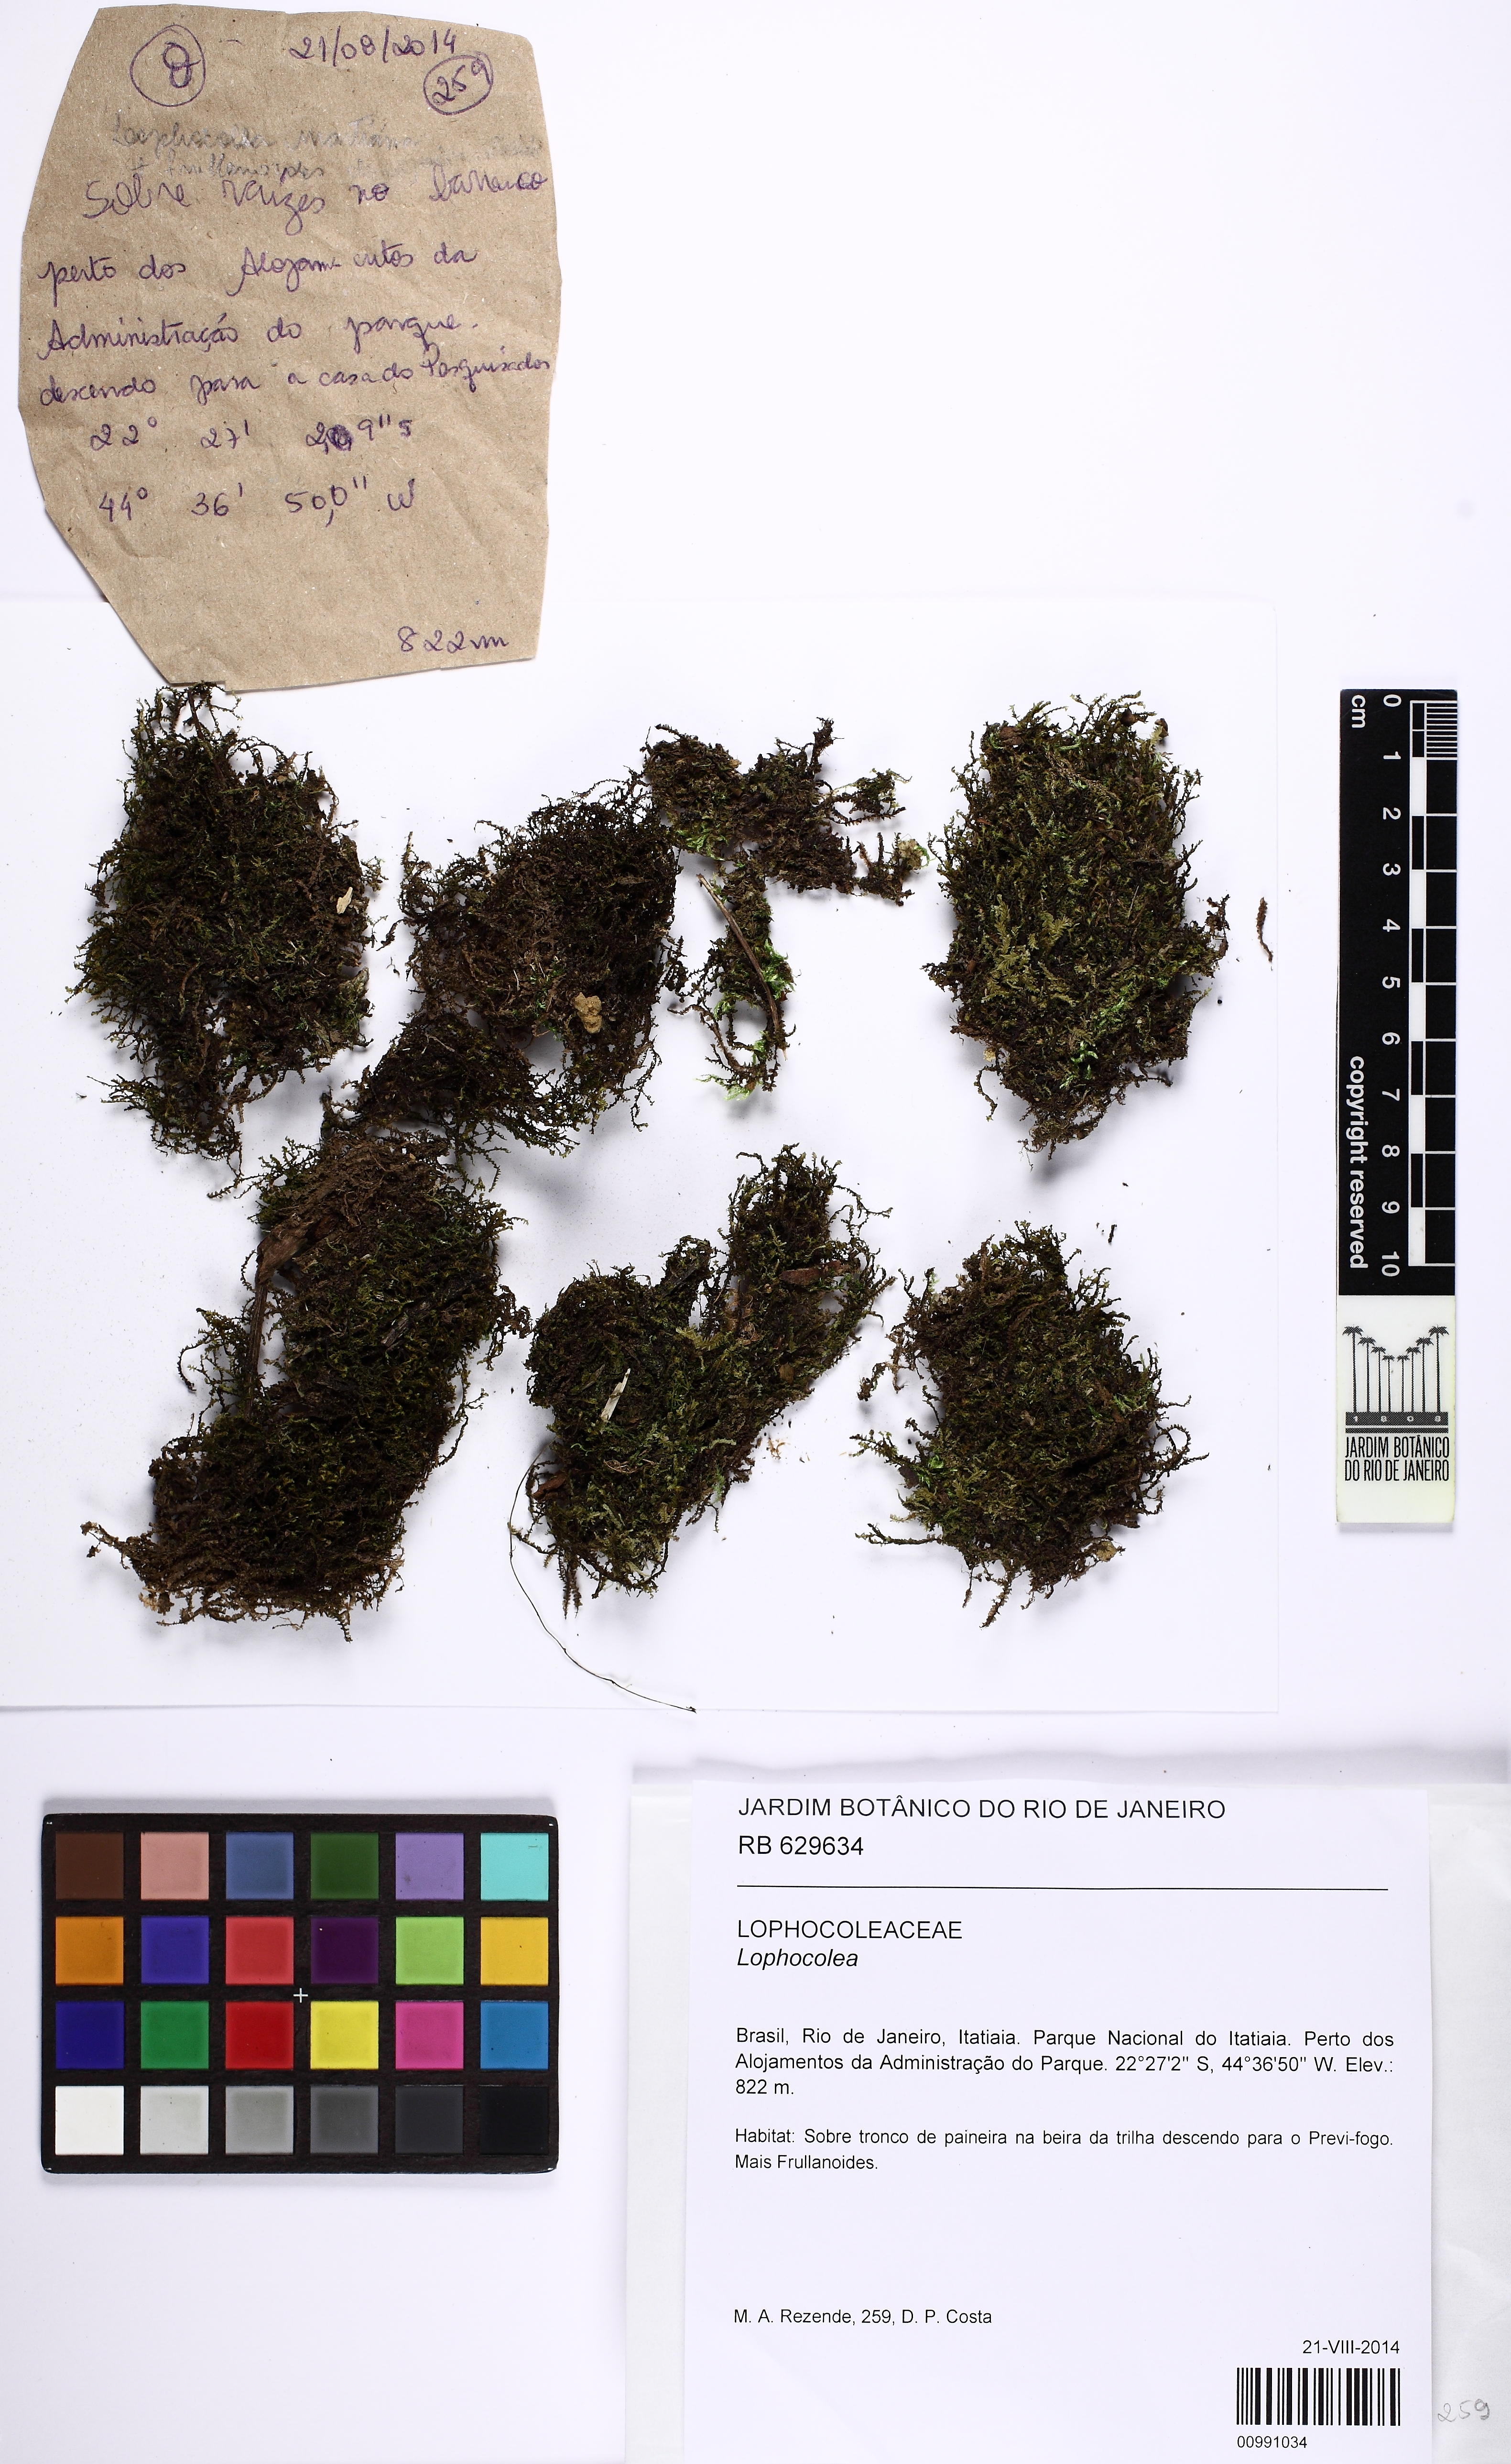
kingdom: Plantae
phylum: Marchantiophyta
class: Jungermanniopsida
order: Jungermanniales
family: Lophocoleaceae
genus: Lophocolea
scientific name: Lophocolea
